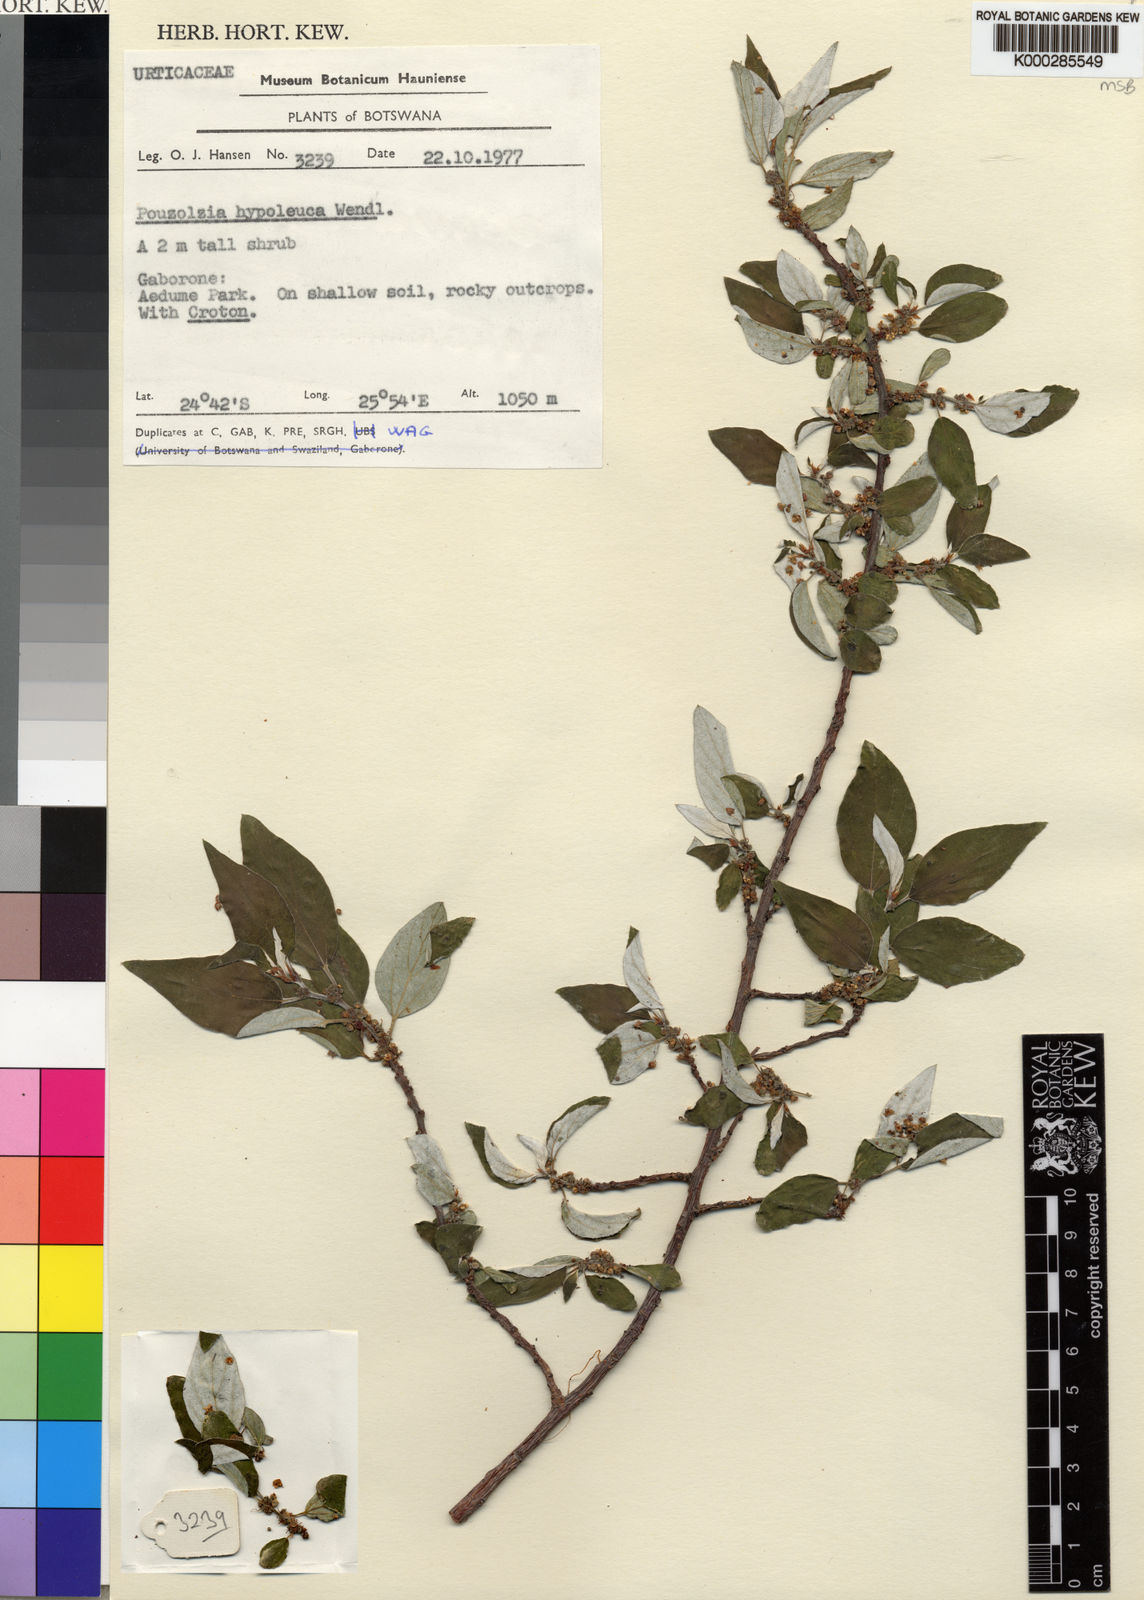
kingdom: Plantae
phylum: Tracheophyta
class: Magnoliopsida
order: Rosales
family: Urticaceae
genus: Pouzolzia
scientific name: Pouzolzia mixta
